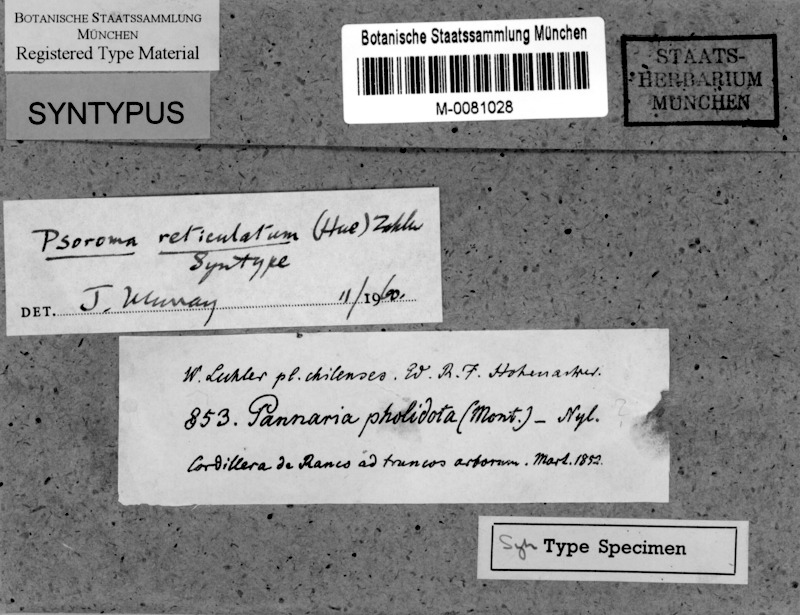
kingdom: Fungi
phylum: Ascomycota
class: Lecanoromycetes
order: Peltigerales
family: Pannariaceae
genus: Psoroma
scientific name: Psoroma pholidotoides
